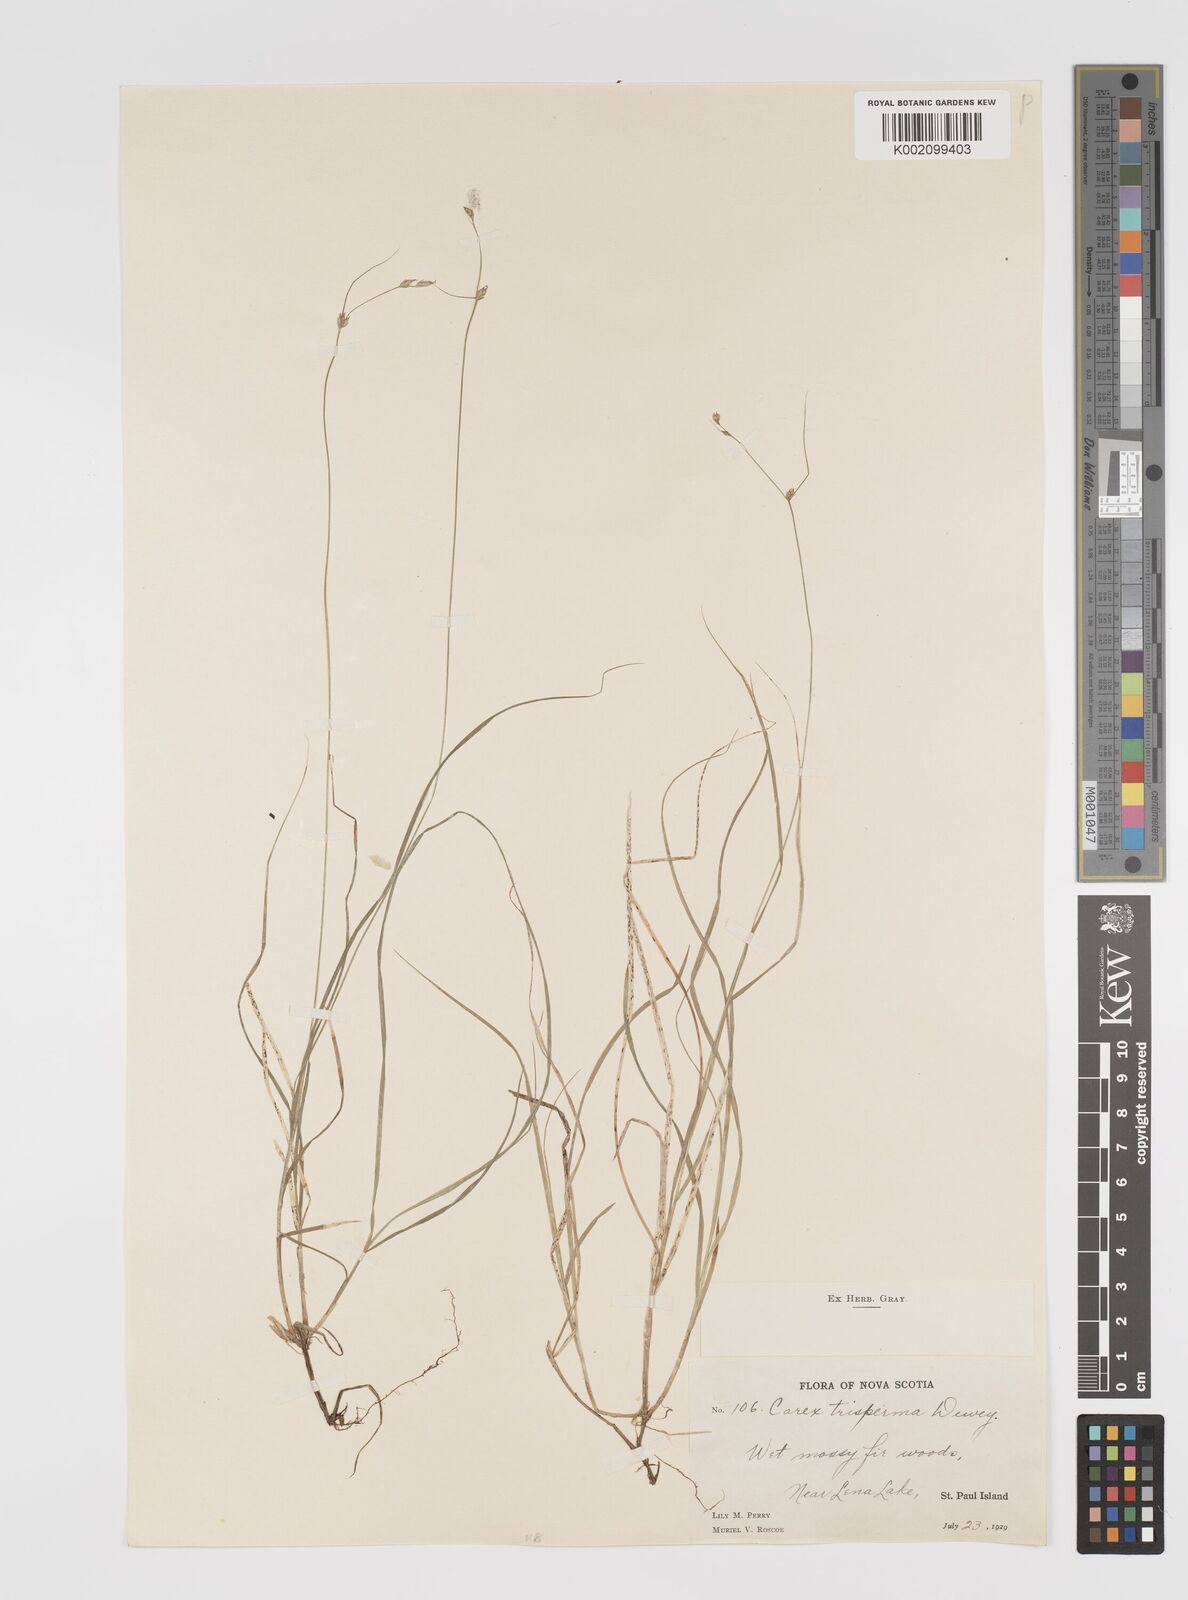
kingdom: Plantae
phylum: Tracheophyta
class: Liliopsida
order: Poales
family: Cyperaceae
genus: Carex
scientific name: Carex trisperma
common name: Three-seeded sedge
